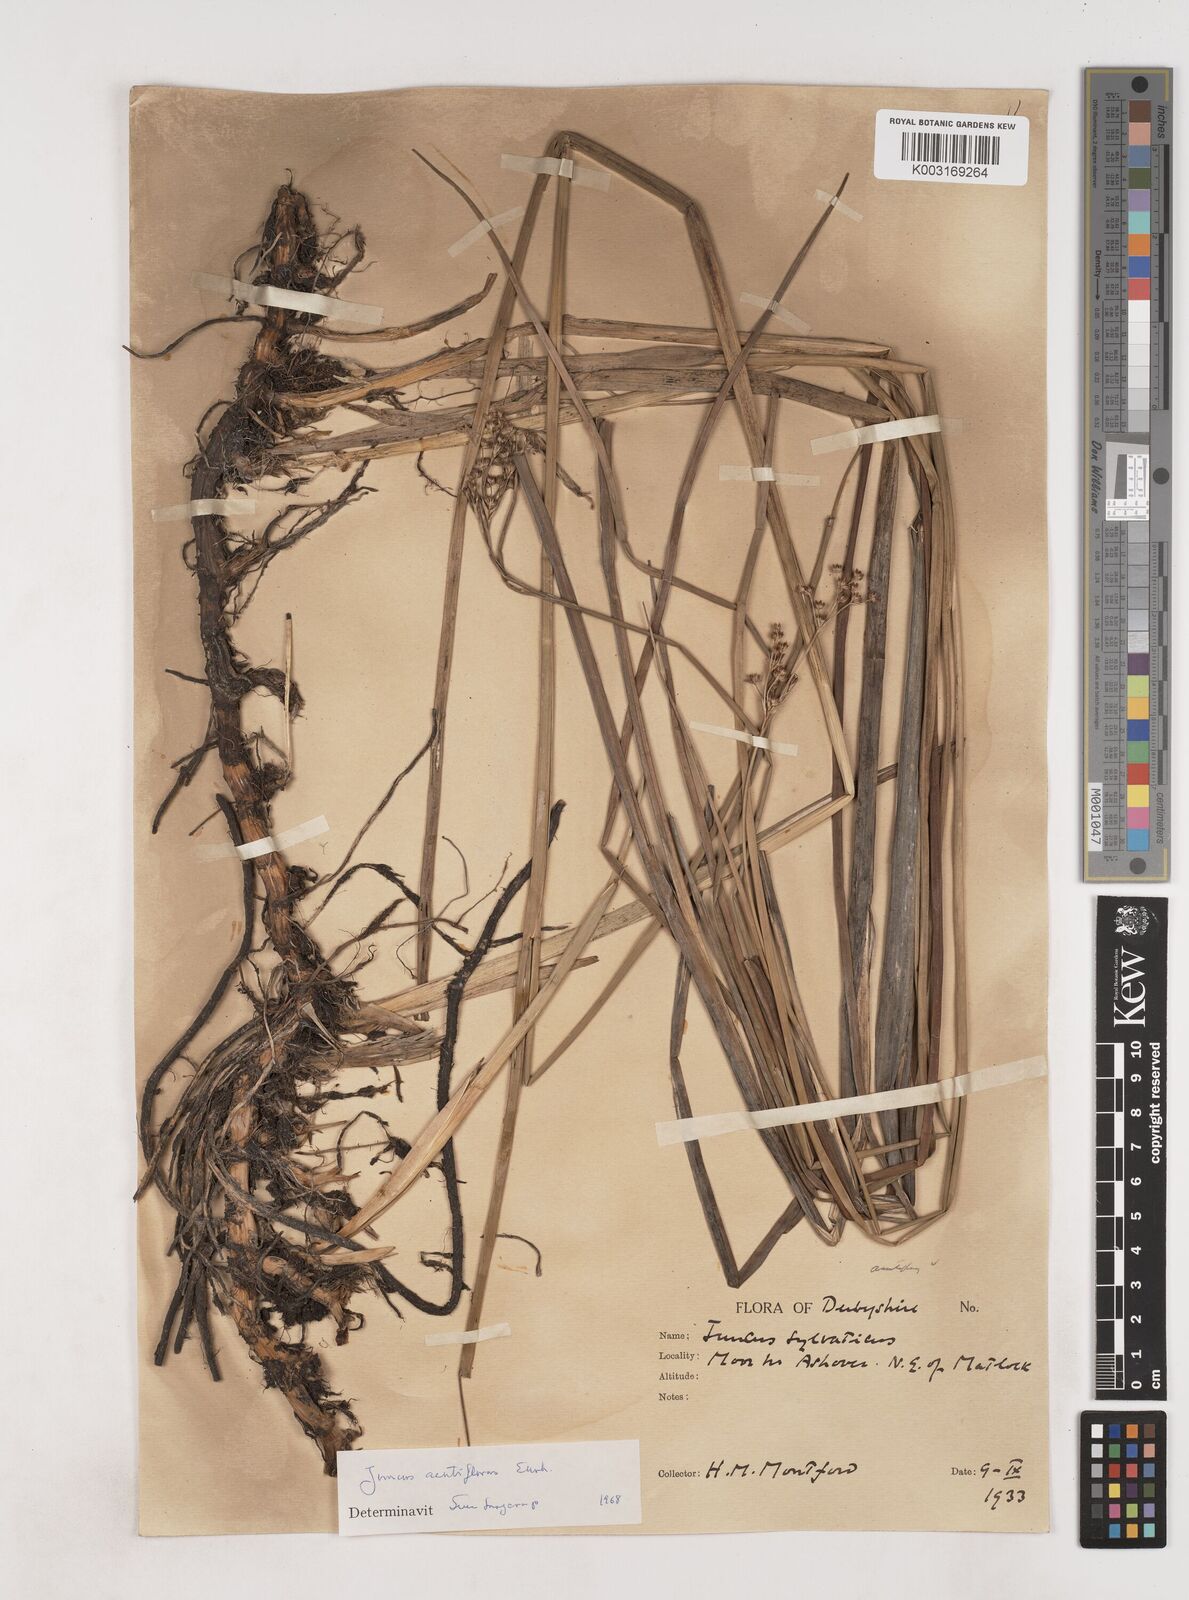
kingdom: Plantae
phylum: Tracheophyta
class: Liliopsida
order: Poales
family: Juncaceae
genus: Juncus
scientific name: Juncus acutiflorus
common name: Sharp-flowered rush
